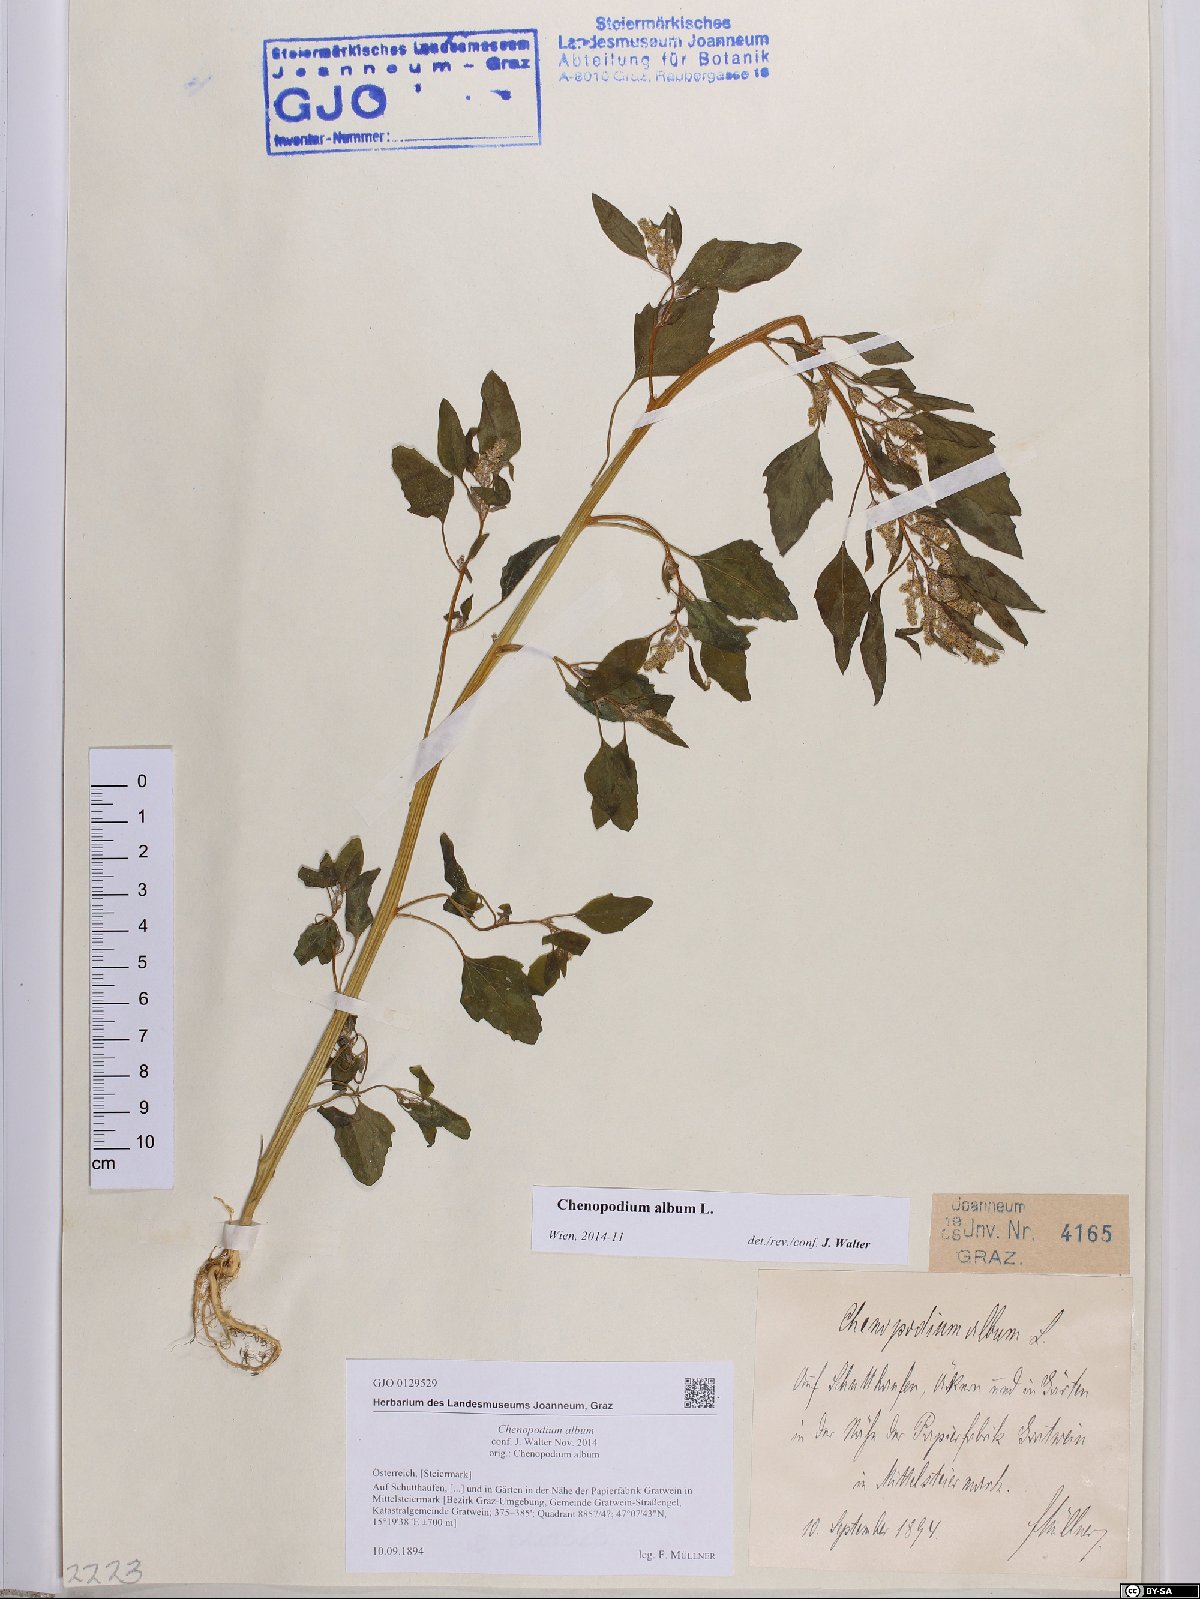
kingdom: Plantae
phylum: Tracheophyta
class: Magnoliopsida
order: Caryophyllales
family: Amaranthaceae
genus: Chenopodium
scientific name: Chenopodium album
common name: Fat-hen
